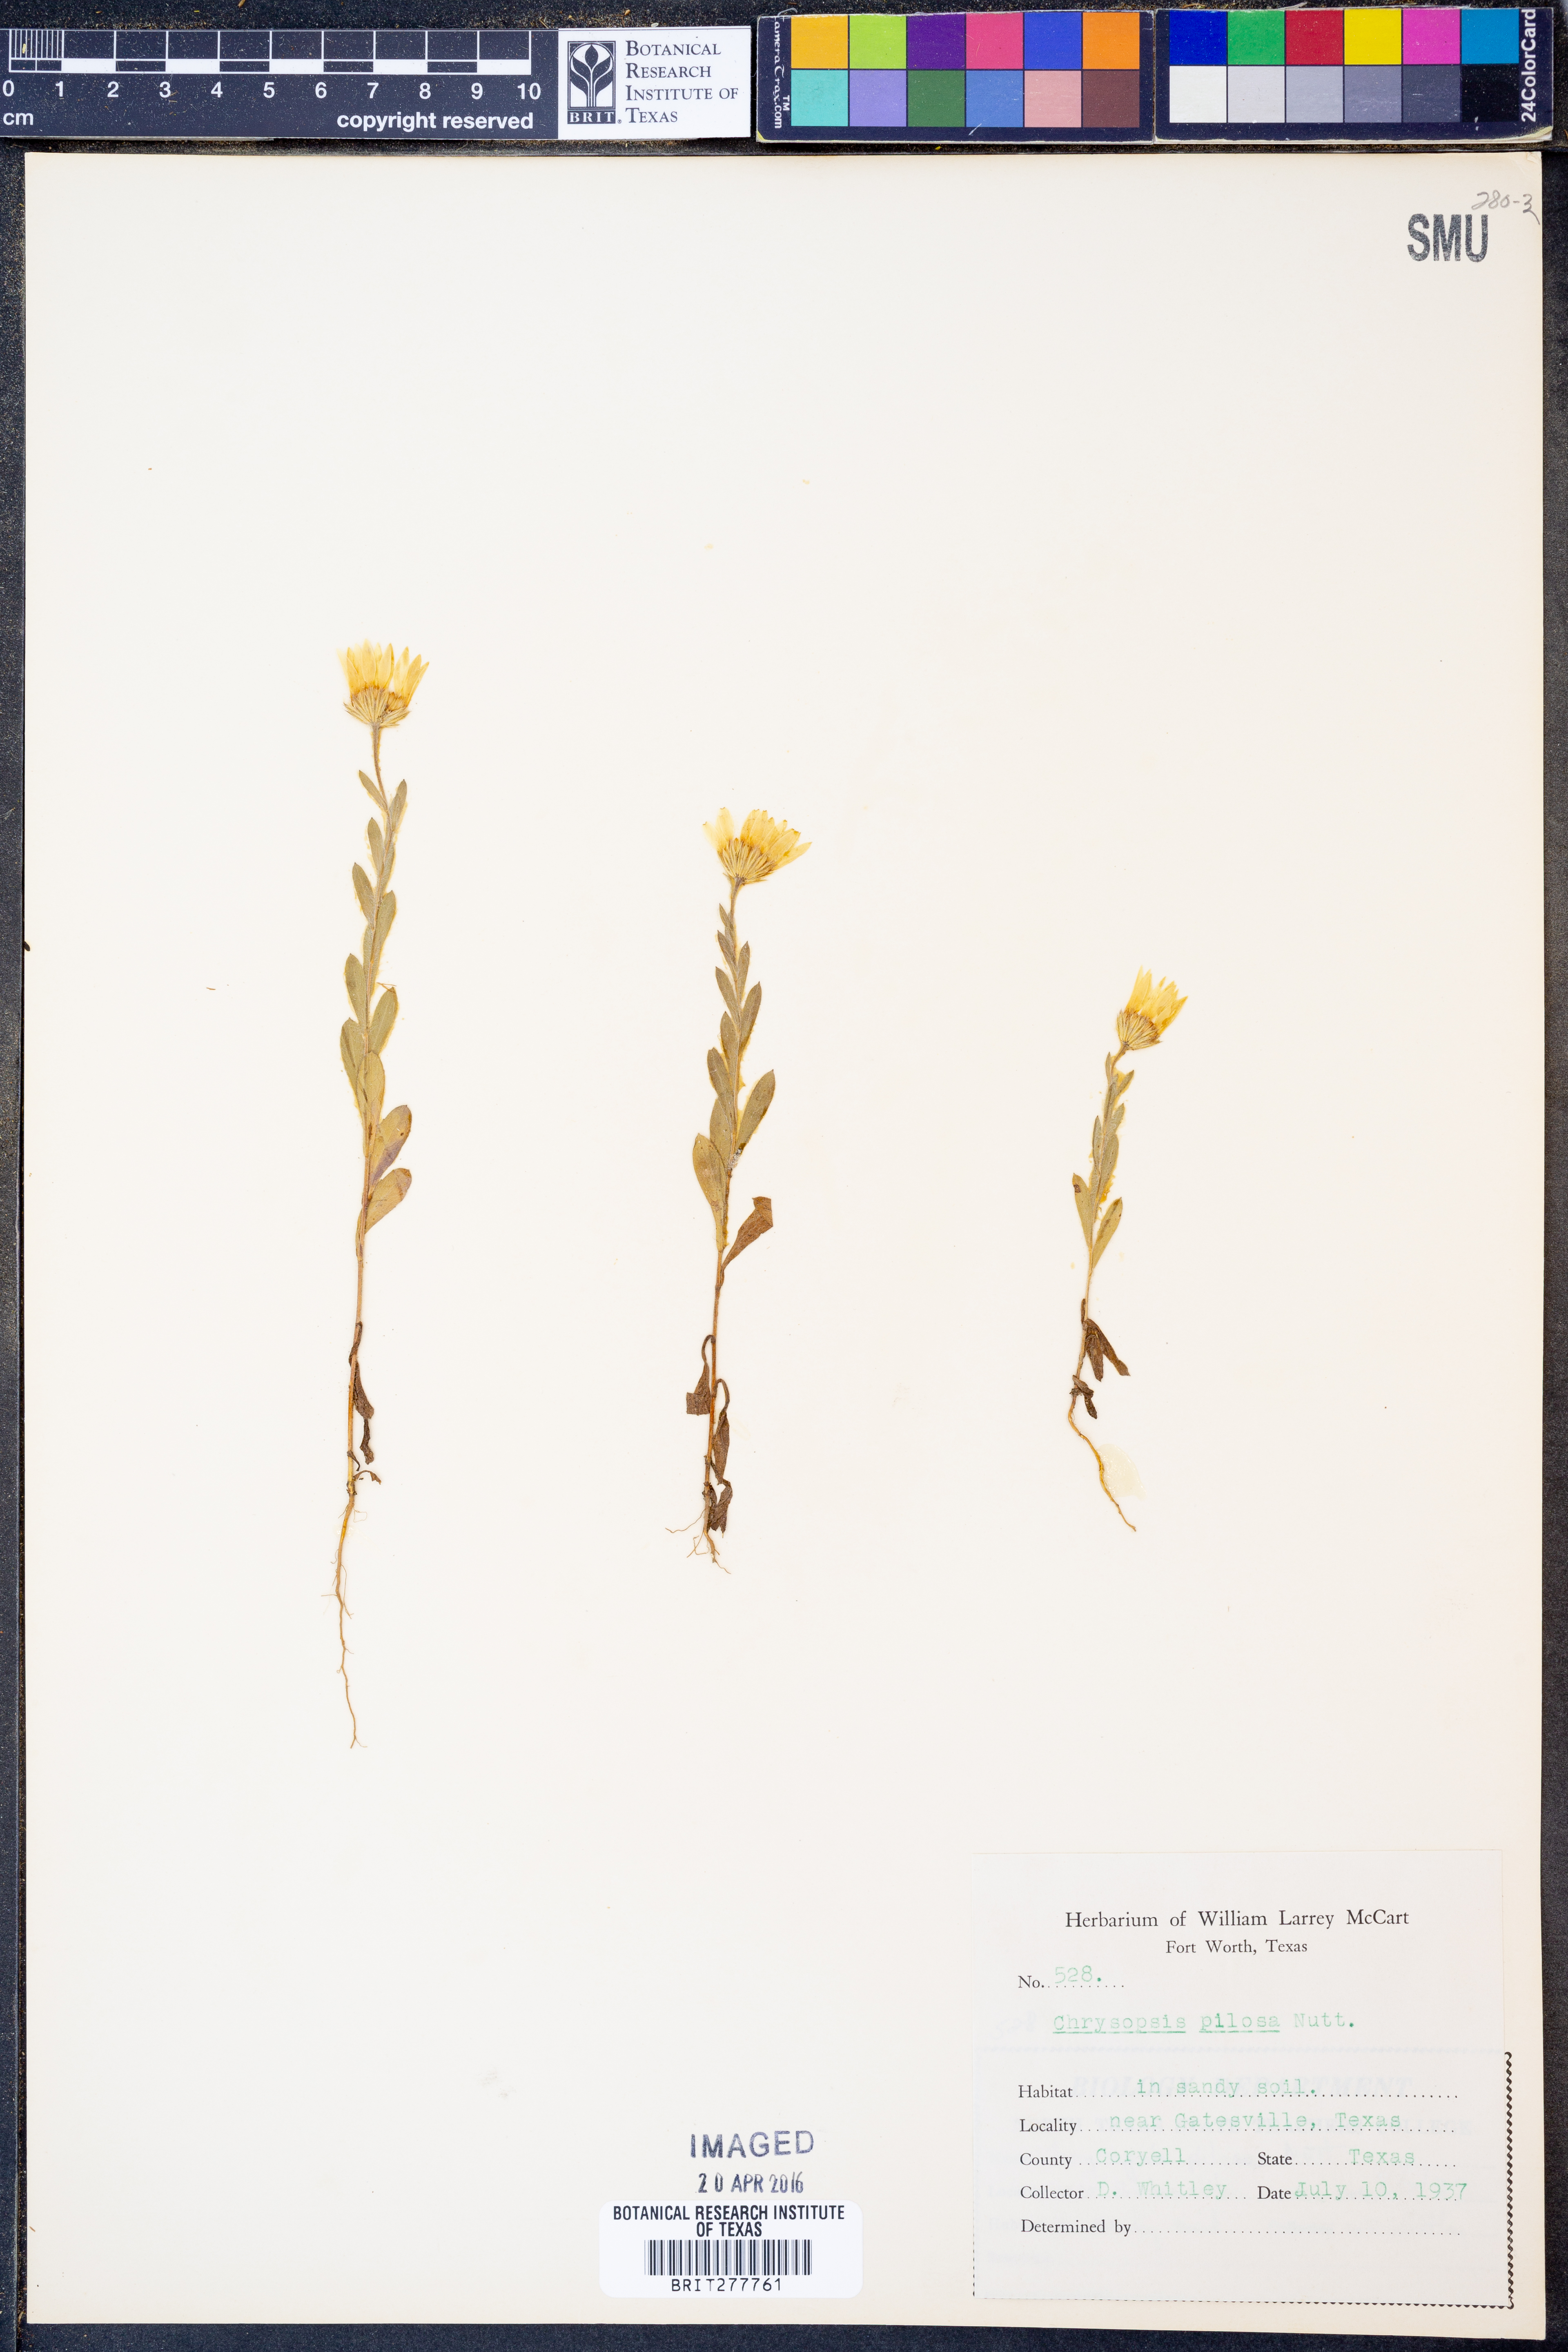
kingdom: Plantae
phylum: Tracheophyta
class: Magnoliopsida
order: Asterales
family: Asteraceae
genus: Bradburia
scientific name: Bradburia pilosa
